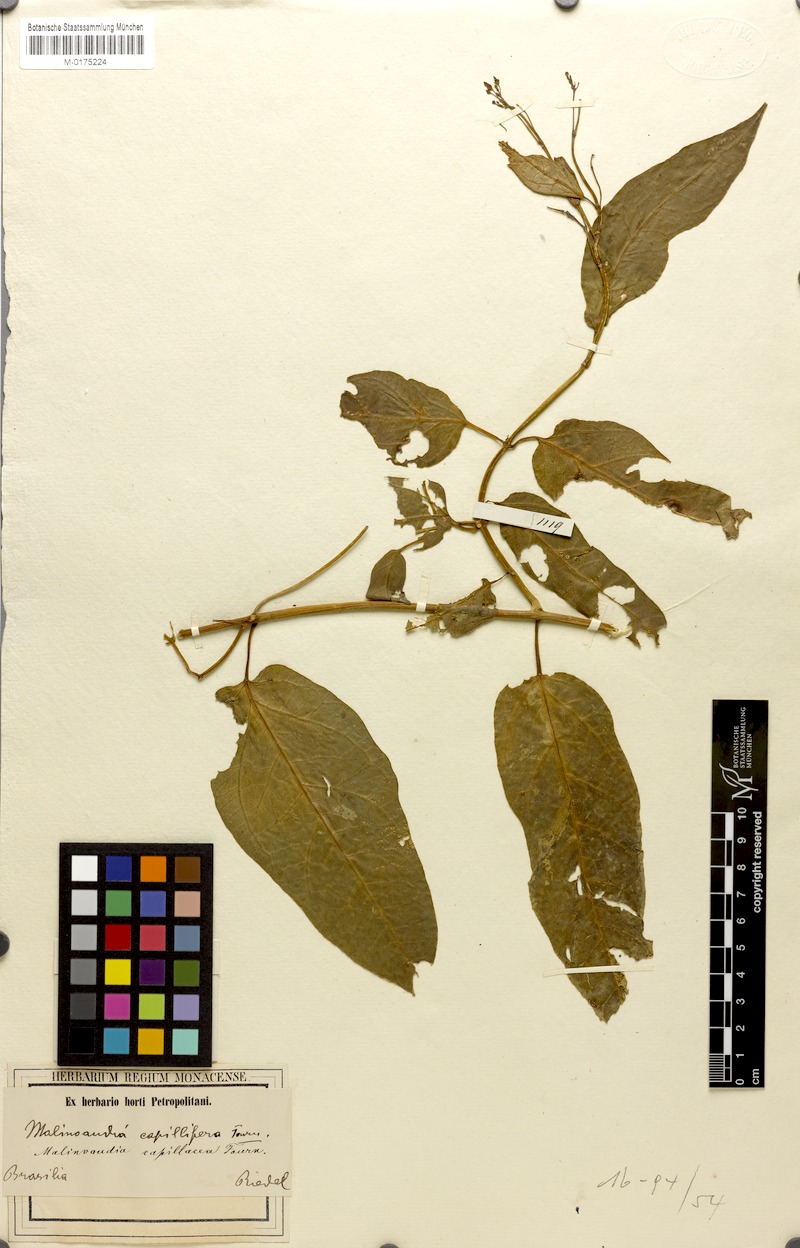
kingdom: Plantae
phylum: Tracheophyta
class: Magnoliopsida
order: Gentianales
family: Apocynaceae
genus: Matelea
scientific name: Matelea capillacea
